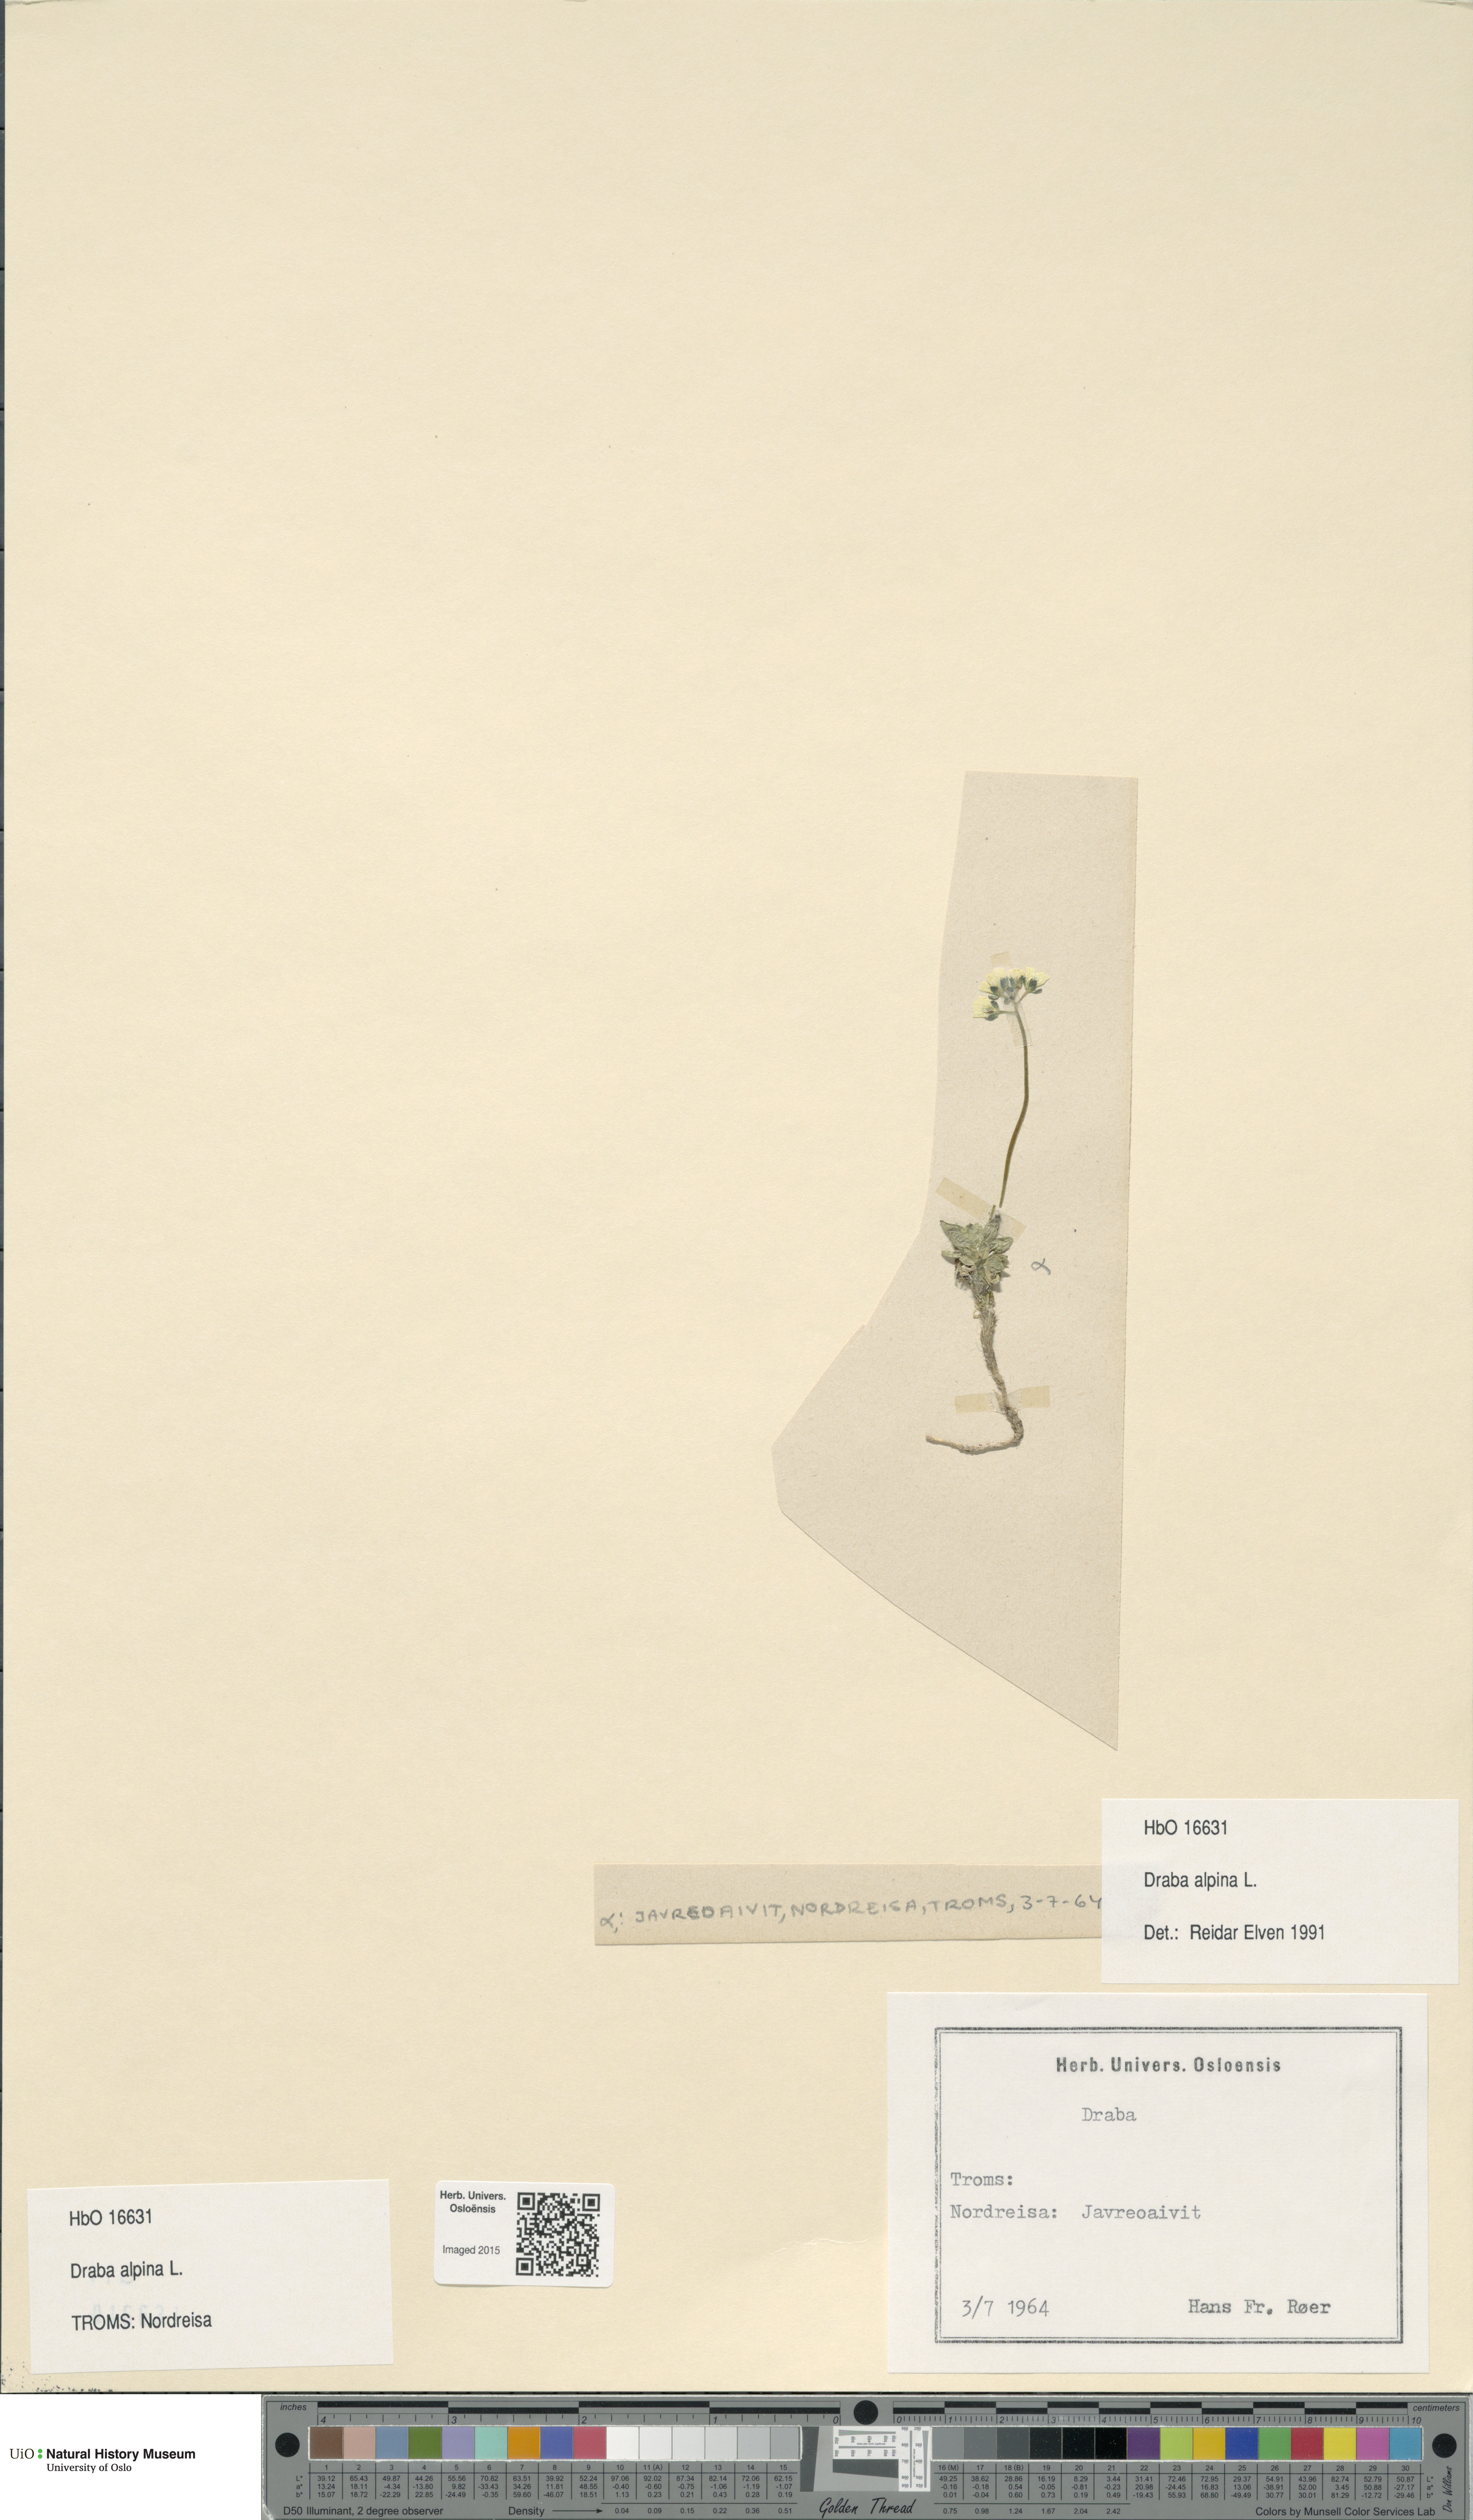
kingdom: Plantae
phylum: Tracheophyta
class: Magnoliopsida
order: Brassicales
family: Brassicaceae
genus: Draba
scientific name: Draba alpina
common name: Alpine draba
